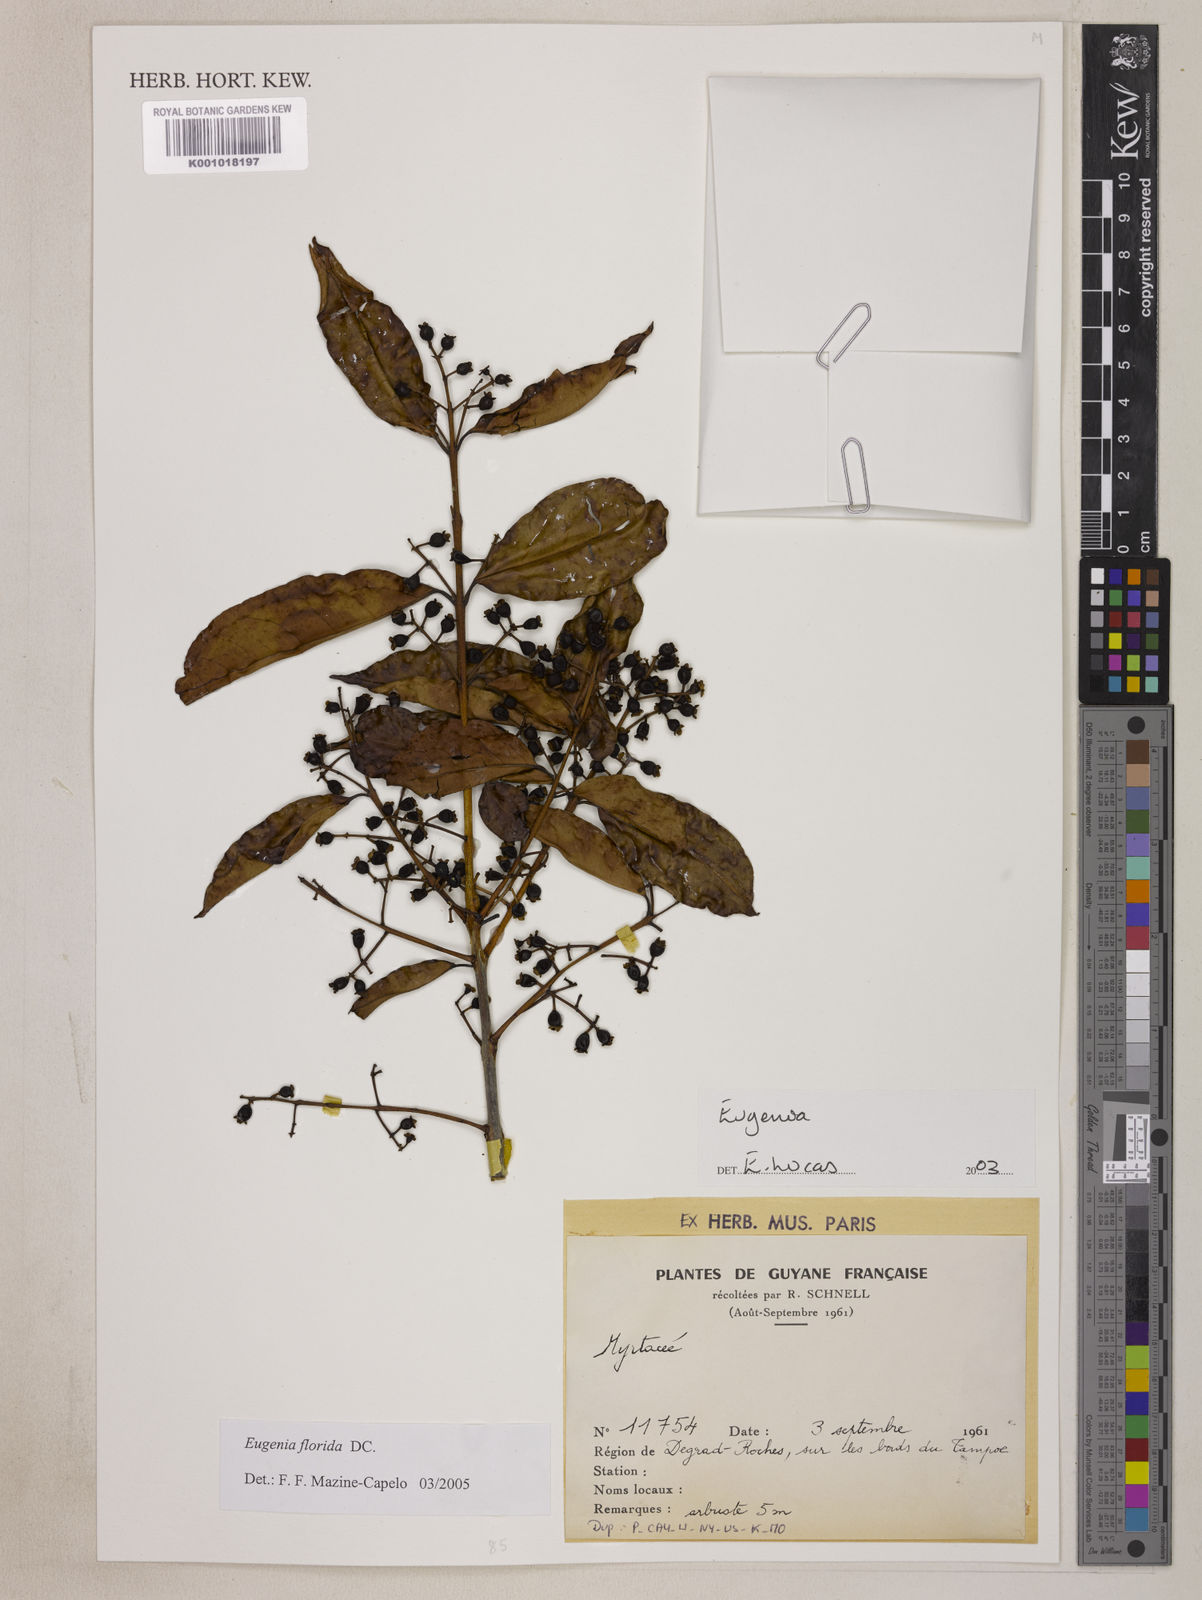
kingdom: Plantae
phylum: Tracheophyta
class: Magnoliopsida
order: Myrtales
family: Myrtaceae
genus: Eugenia
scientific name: Eugenia florida
